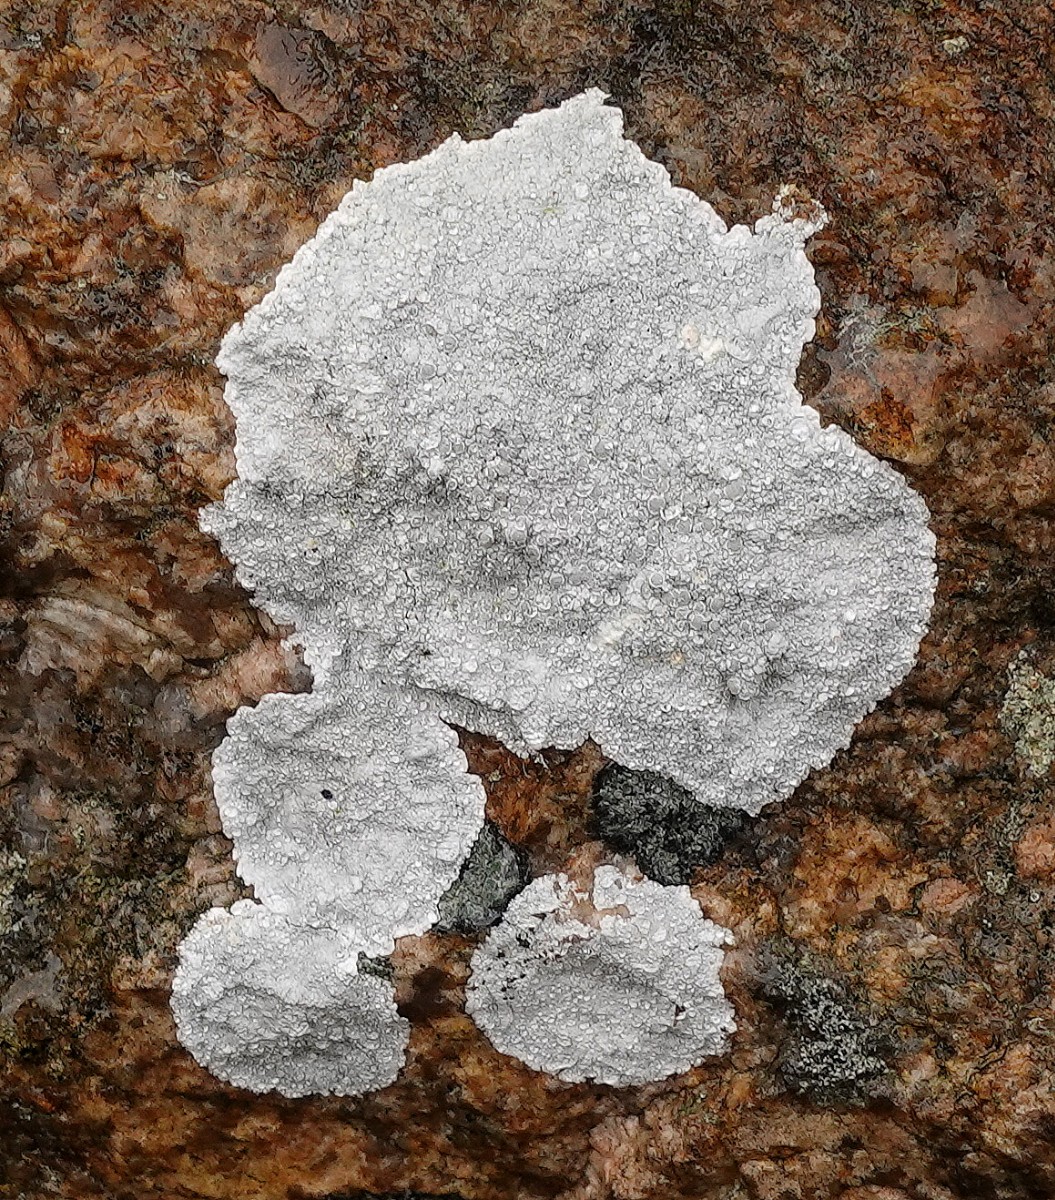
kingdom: Fungi
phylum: Ascomycota
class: Lecanoromycetes
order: Lecanorales
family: Lecanoraceae
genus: Glaucomaria
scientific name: Glaucomaria rupicola
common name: stengærde-kantskivelav
